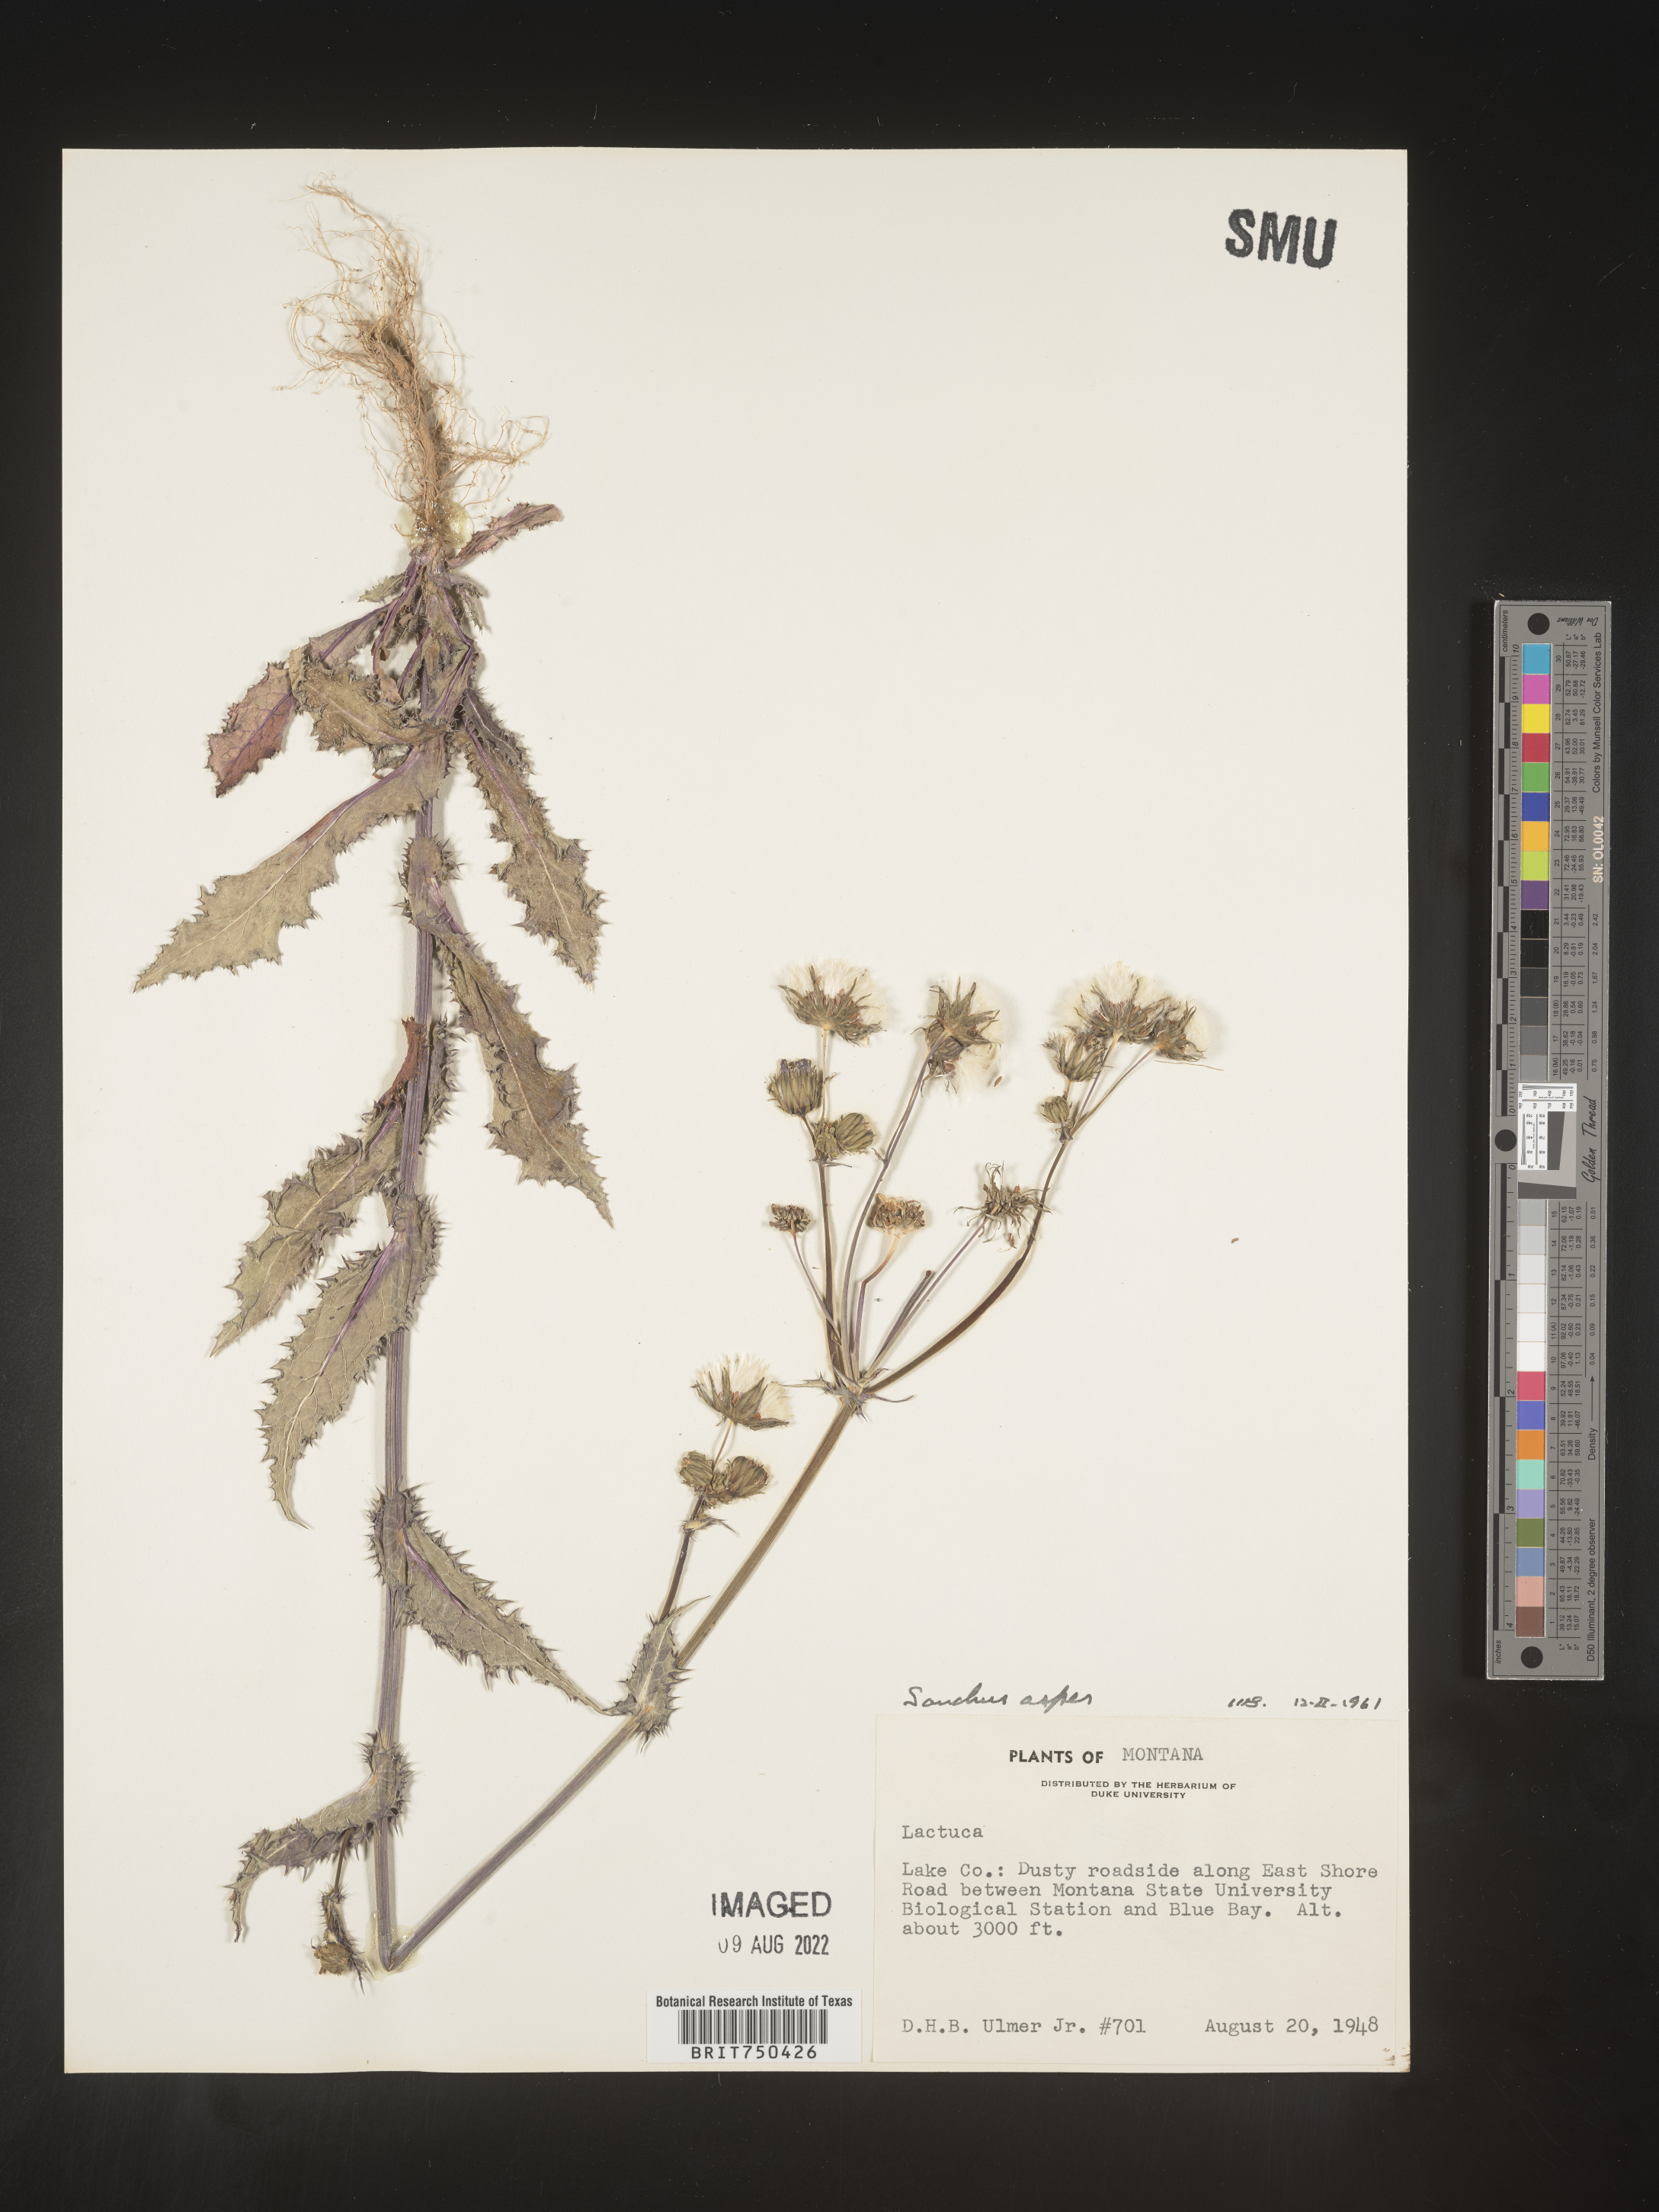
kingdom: Plantae
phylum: Tracheophyta
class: Magnoliopsida
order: Asterales
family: Asteraceae
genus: Sonchus
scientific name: Sonchus asper
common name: Prickly sow-thistle
